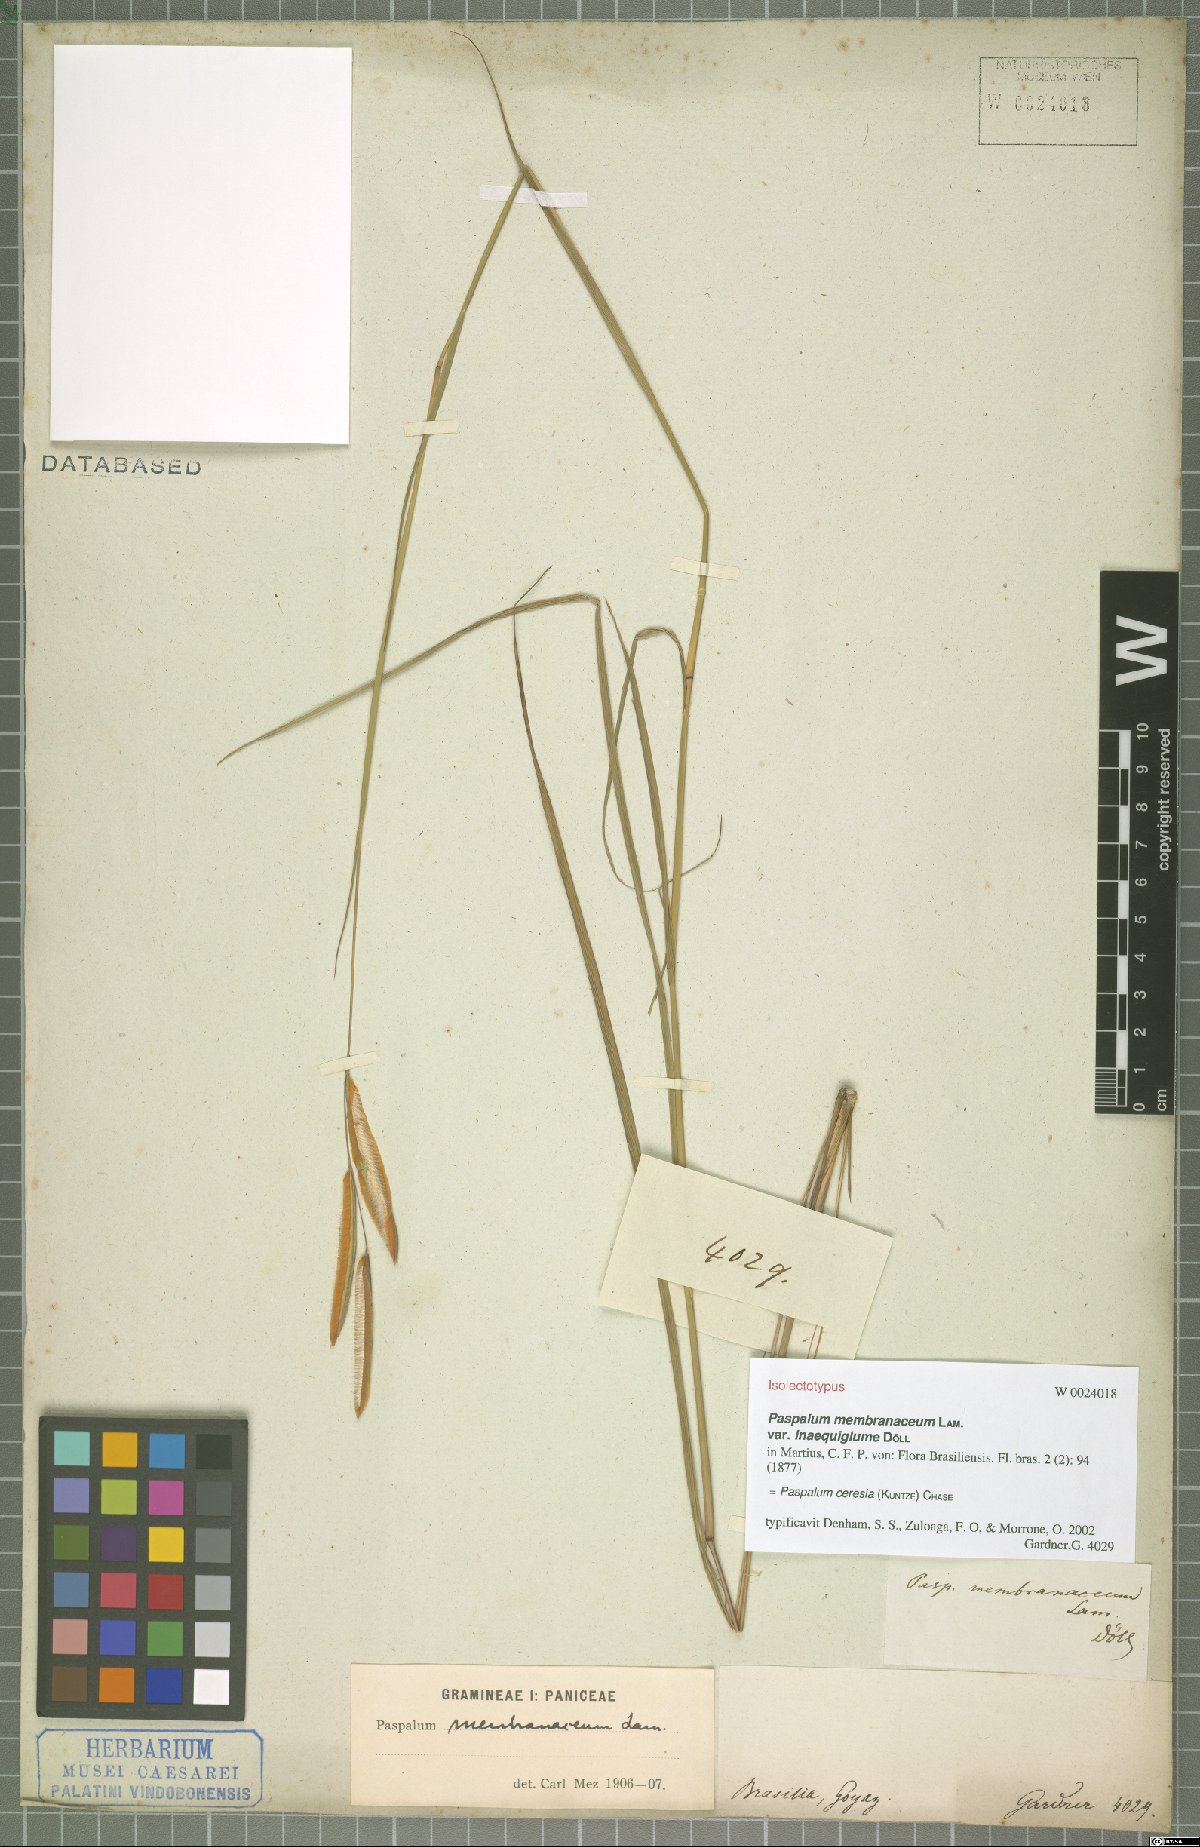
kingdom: Plantae
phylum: Tracheophyta
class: Liliopsida
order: Poales
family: Poaceae
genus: Paspalum
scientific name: Paspalum ceresia
